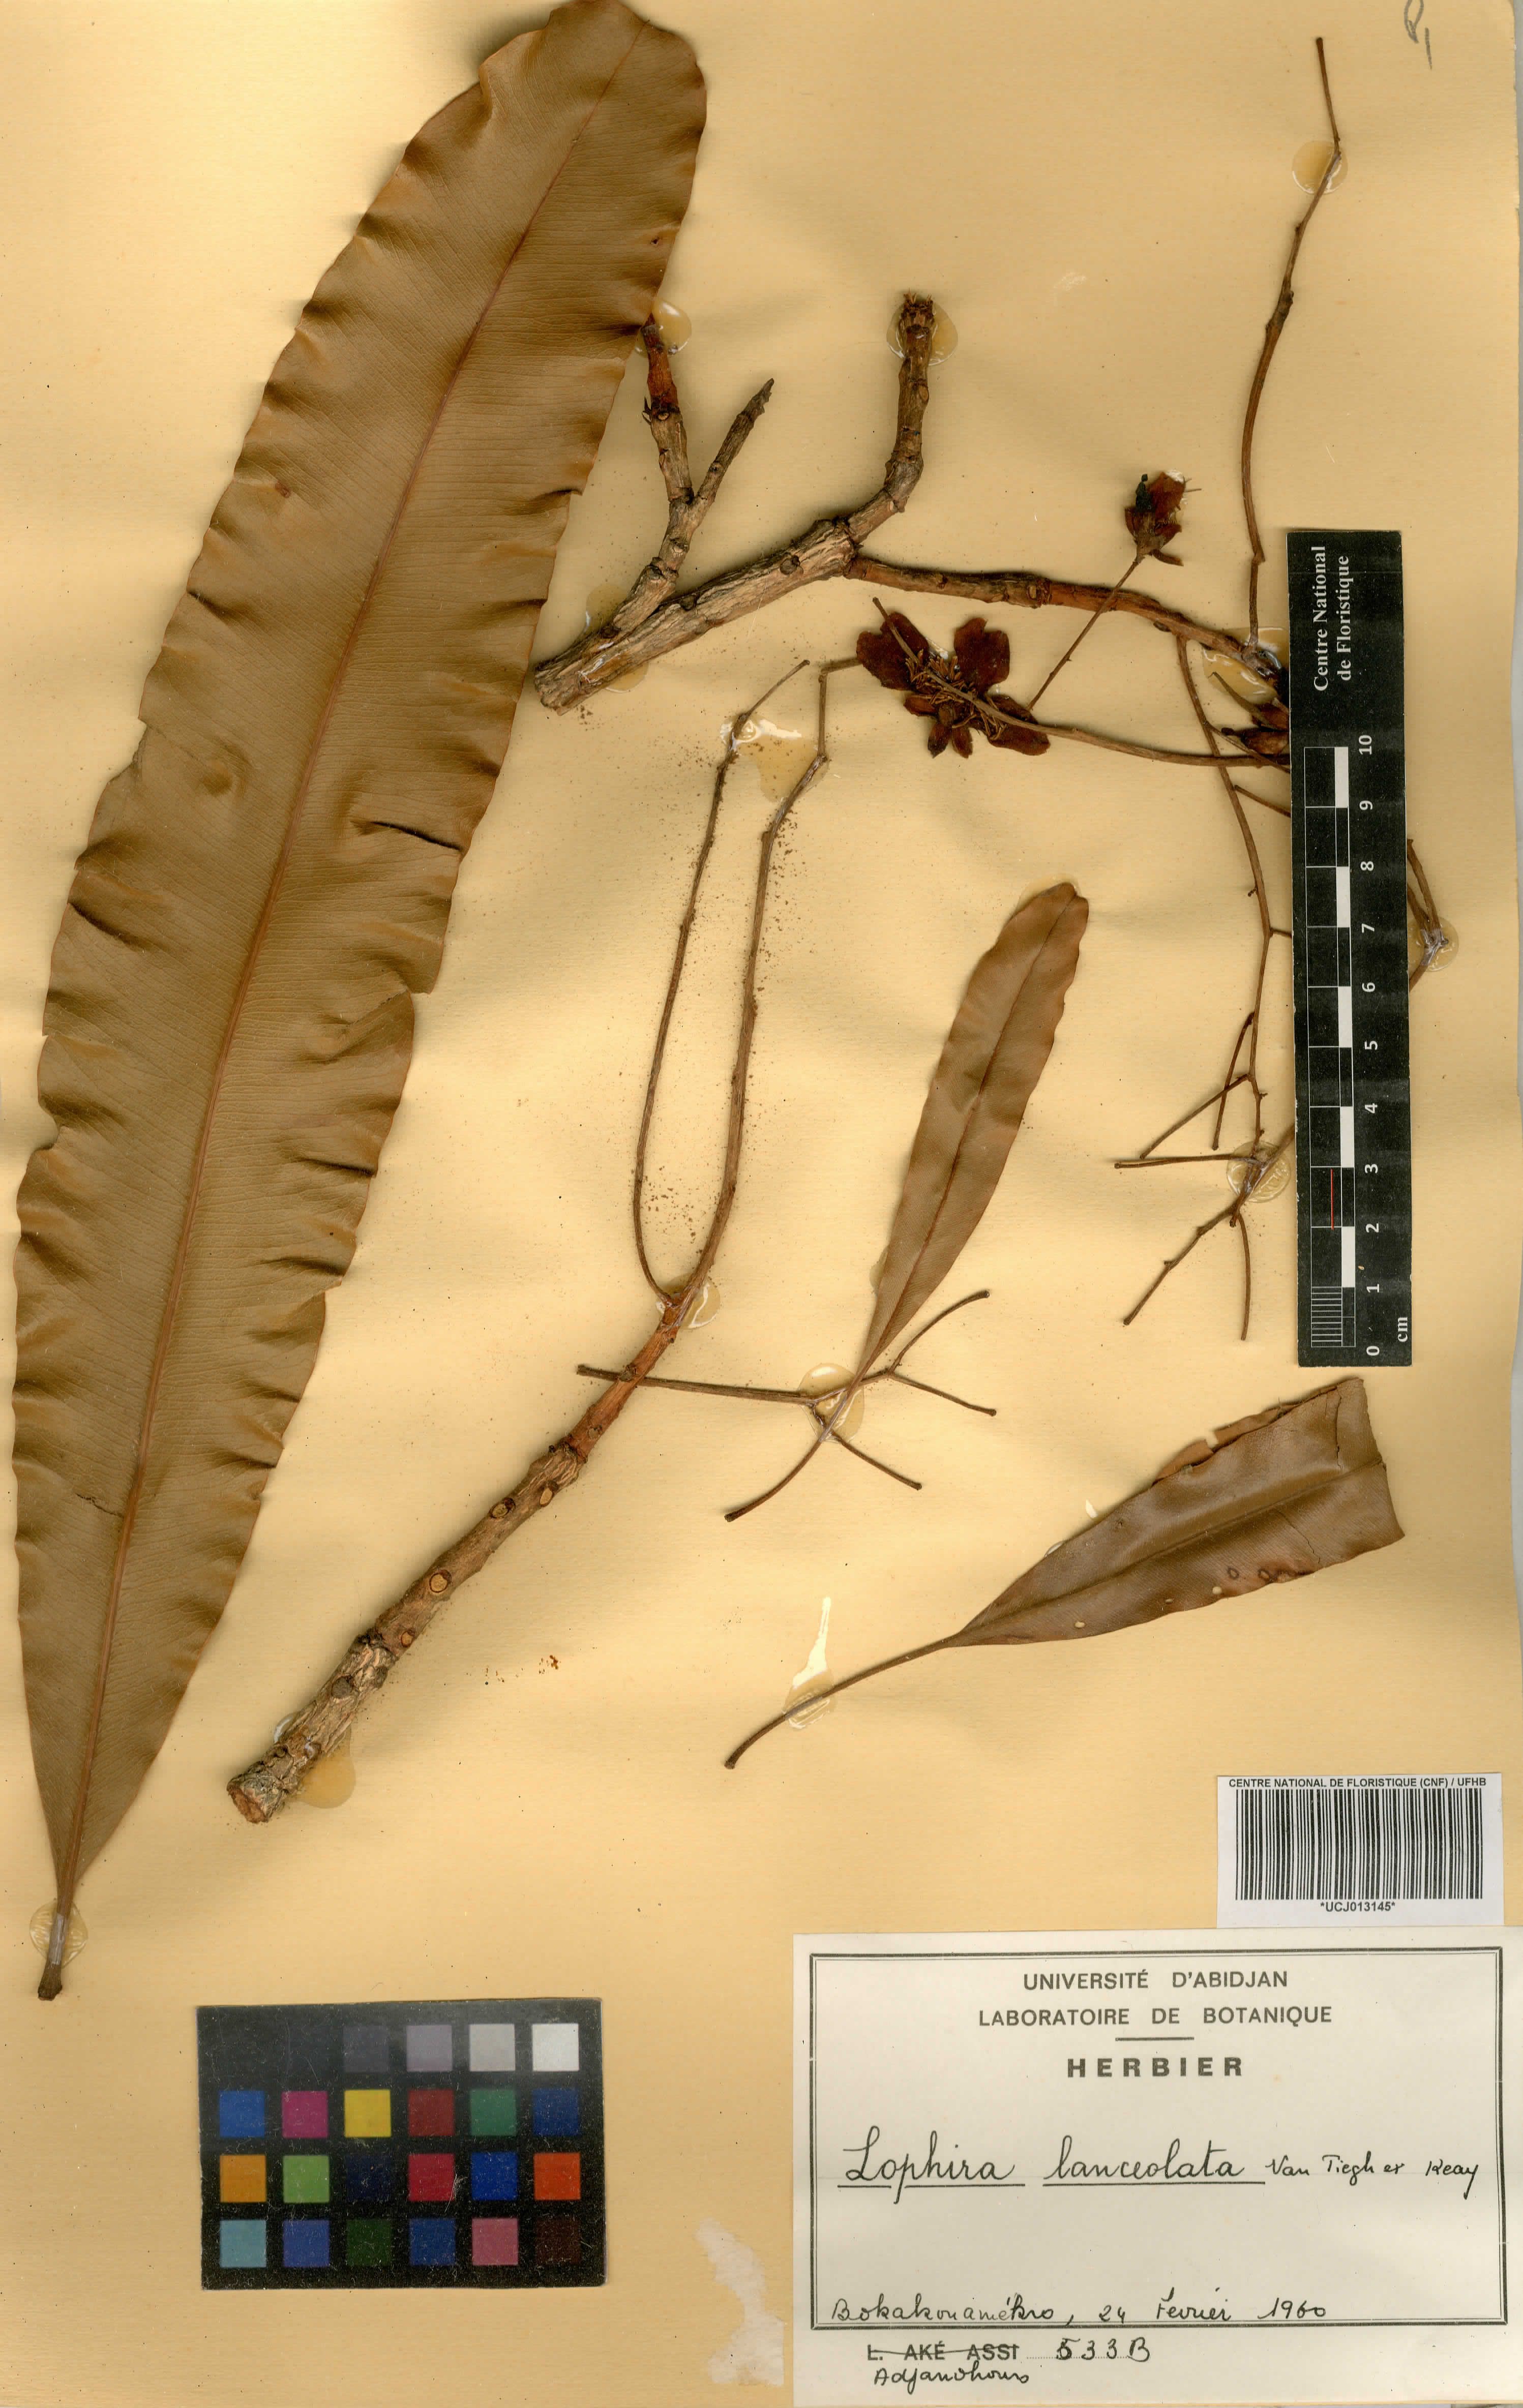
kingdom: Plantae
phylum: Tracheophyta
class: Magnoliopsida
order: Malpighiales
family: Ochnaceae
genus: Lophira
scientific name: Lophira lanceolata
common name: Dwarf red ironwood
